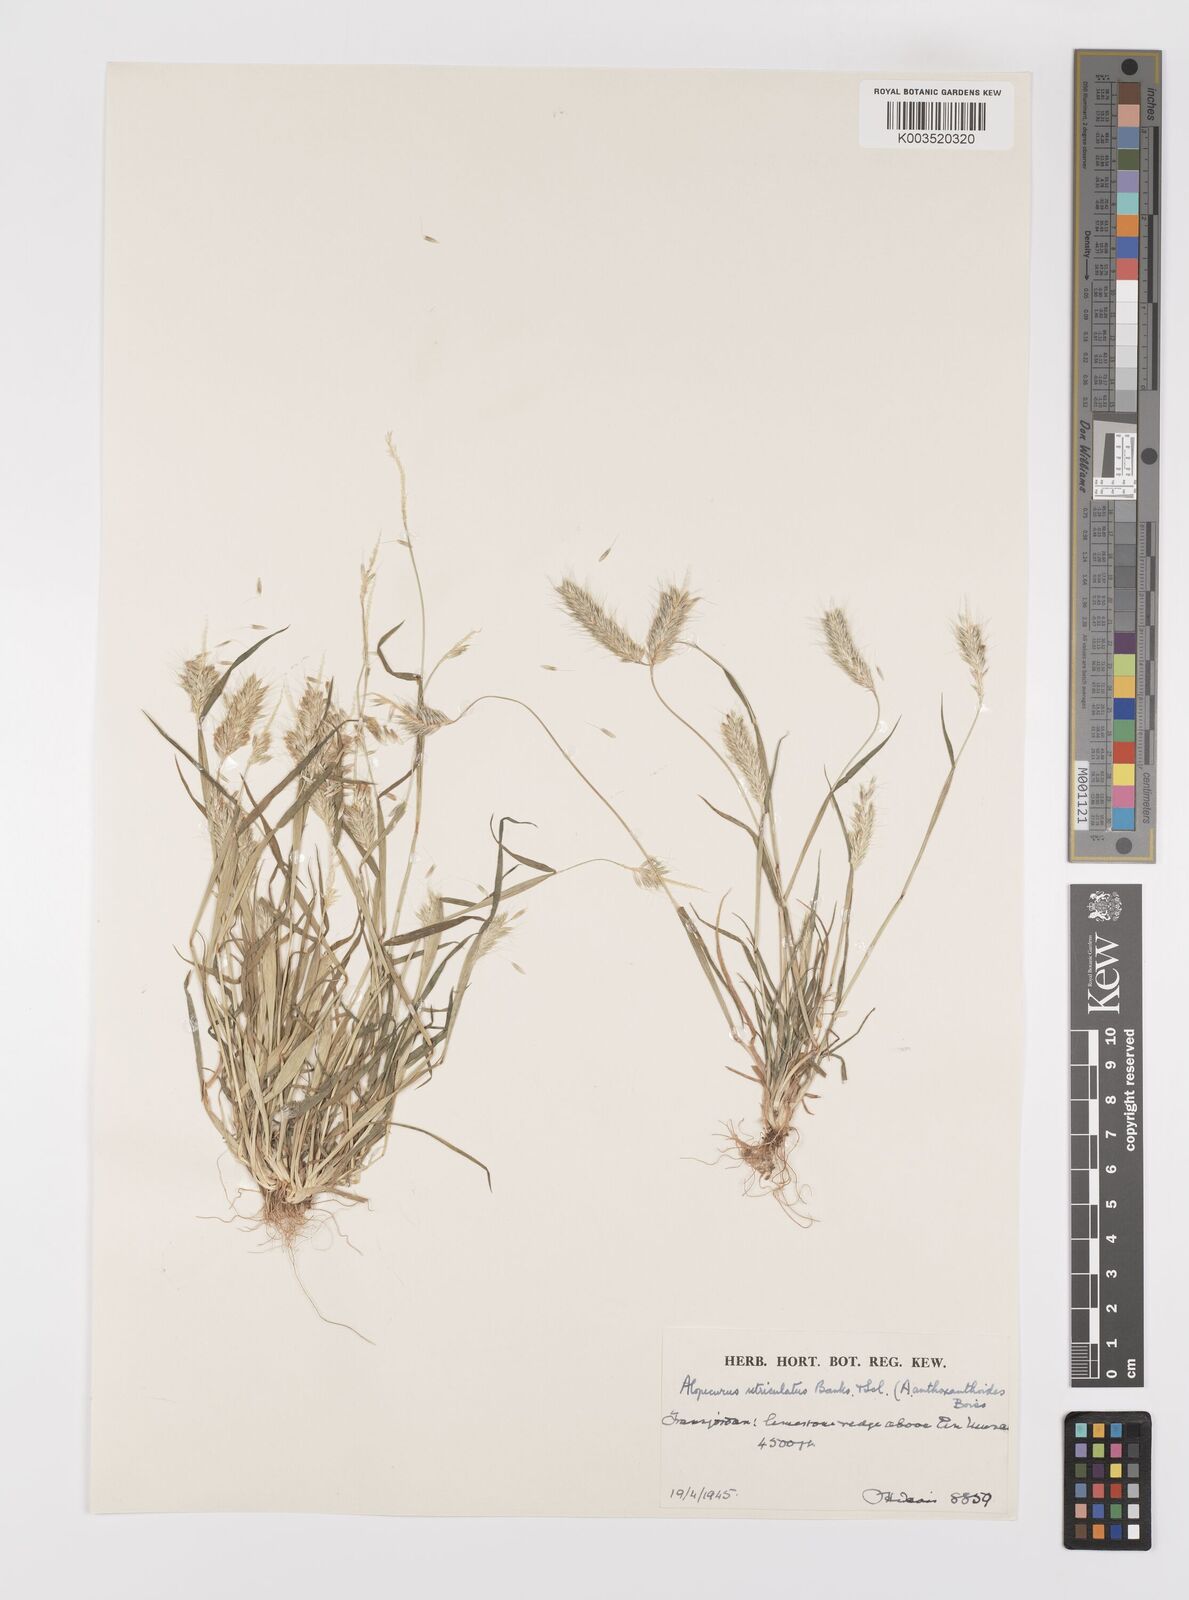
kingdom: Plantae
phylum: Tracheophyta
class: Liliopsida
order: Poales
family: Poaceae
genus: Alopecurus
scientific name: Alopecurus utriculatus
